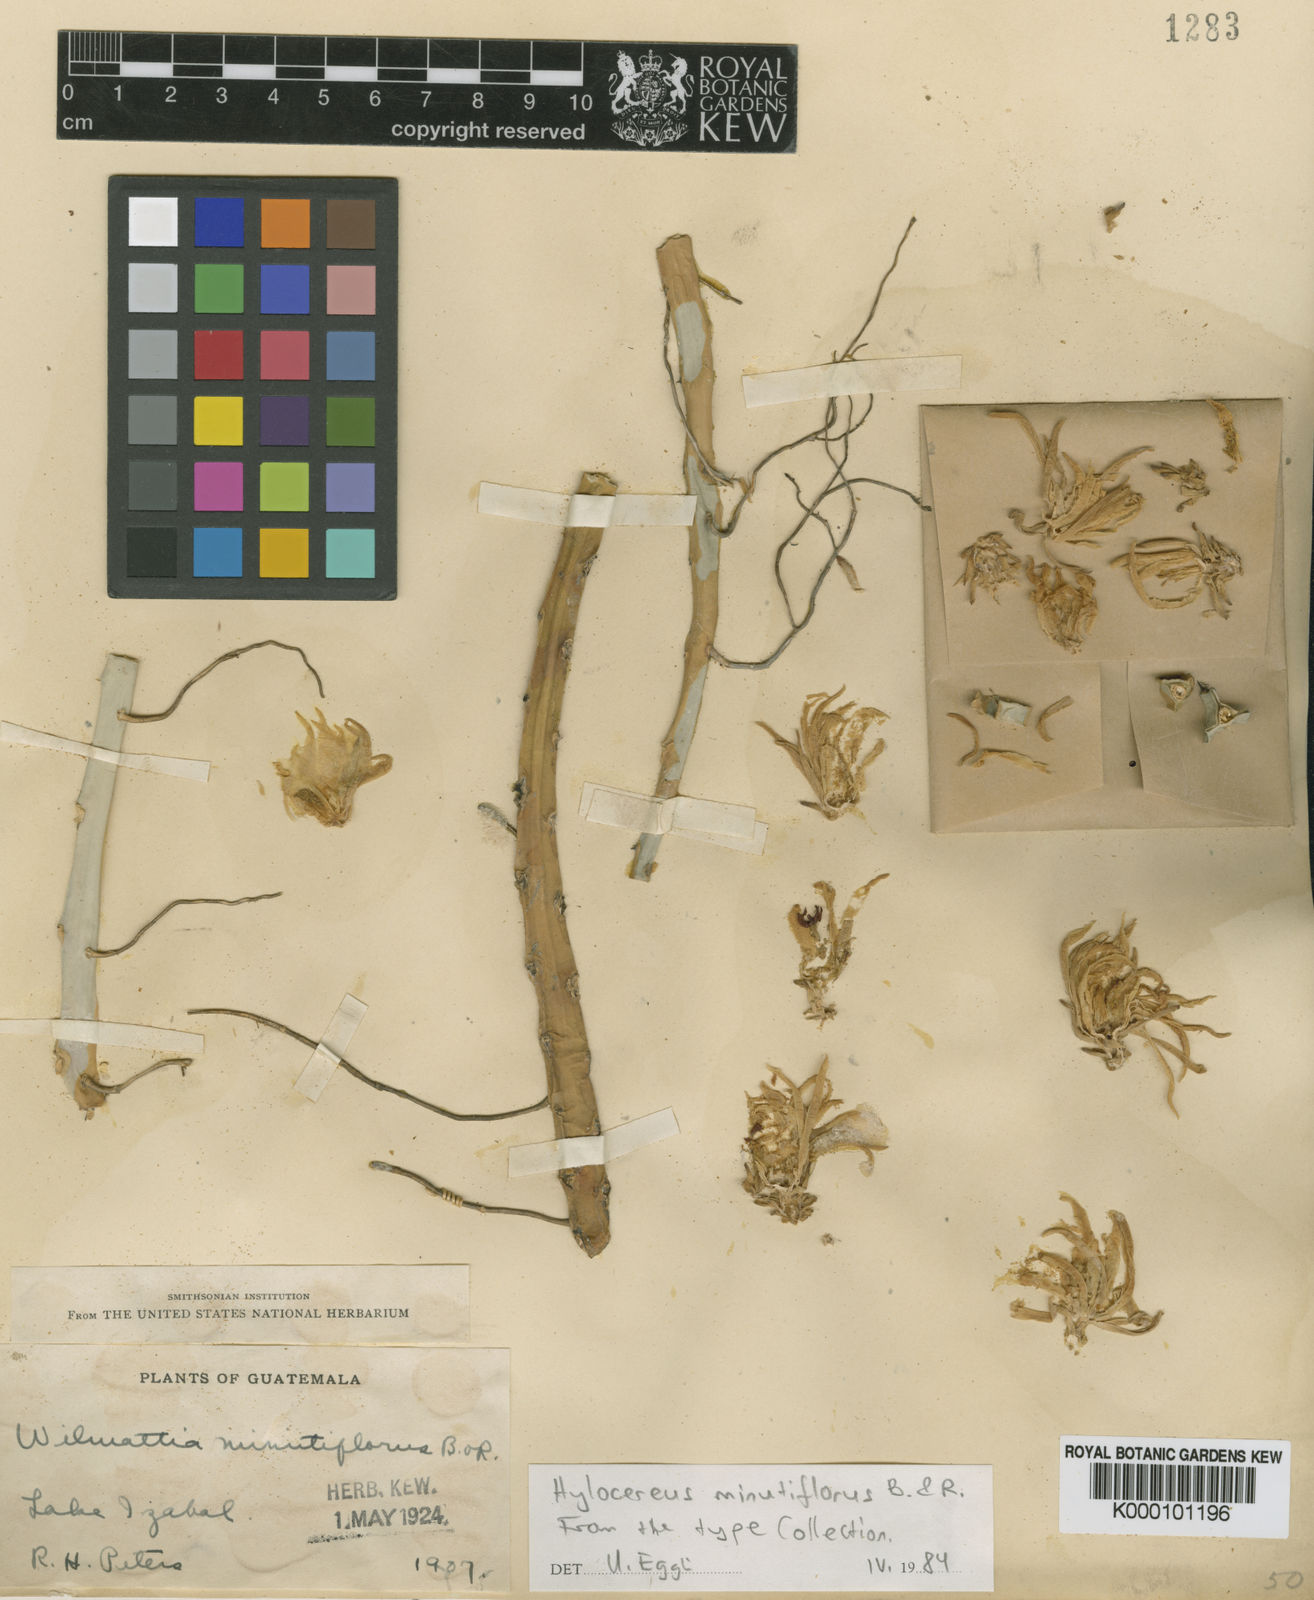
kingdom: Plantae
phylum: Tracheophyta
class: Magnoliopsida
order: Caryophyllales
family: Cactaceae
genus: Selenicereus
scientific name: Selenicereus
